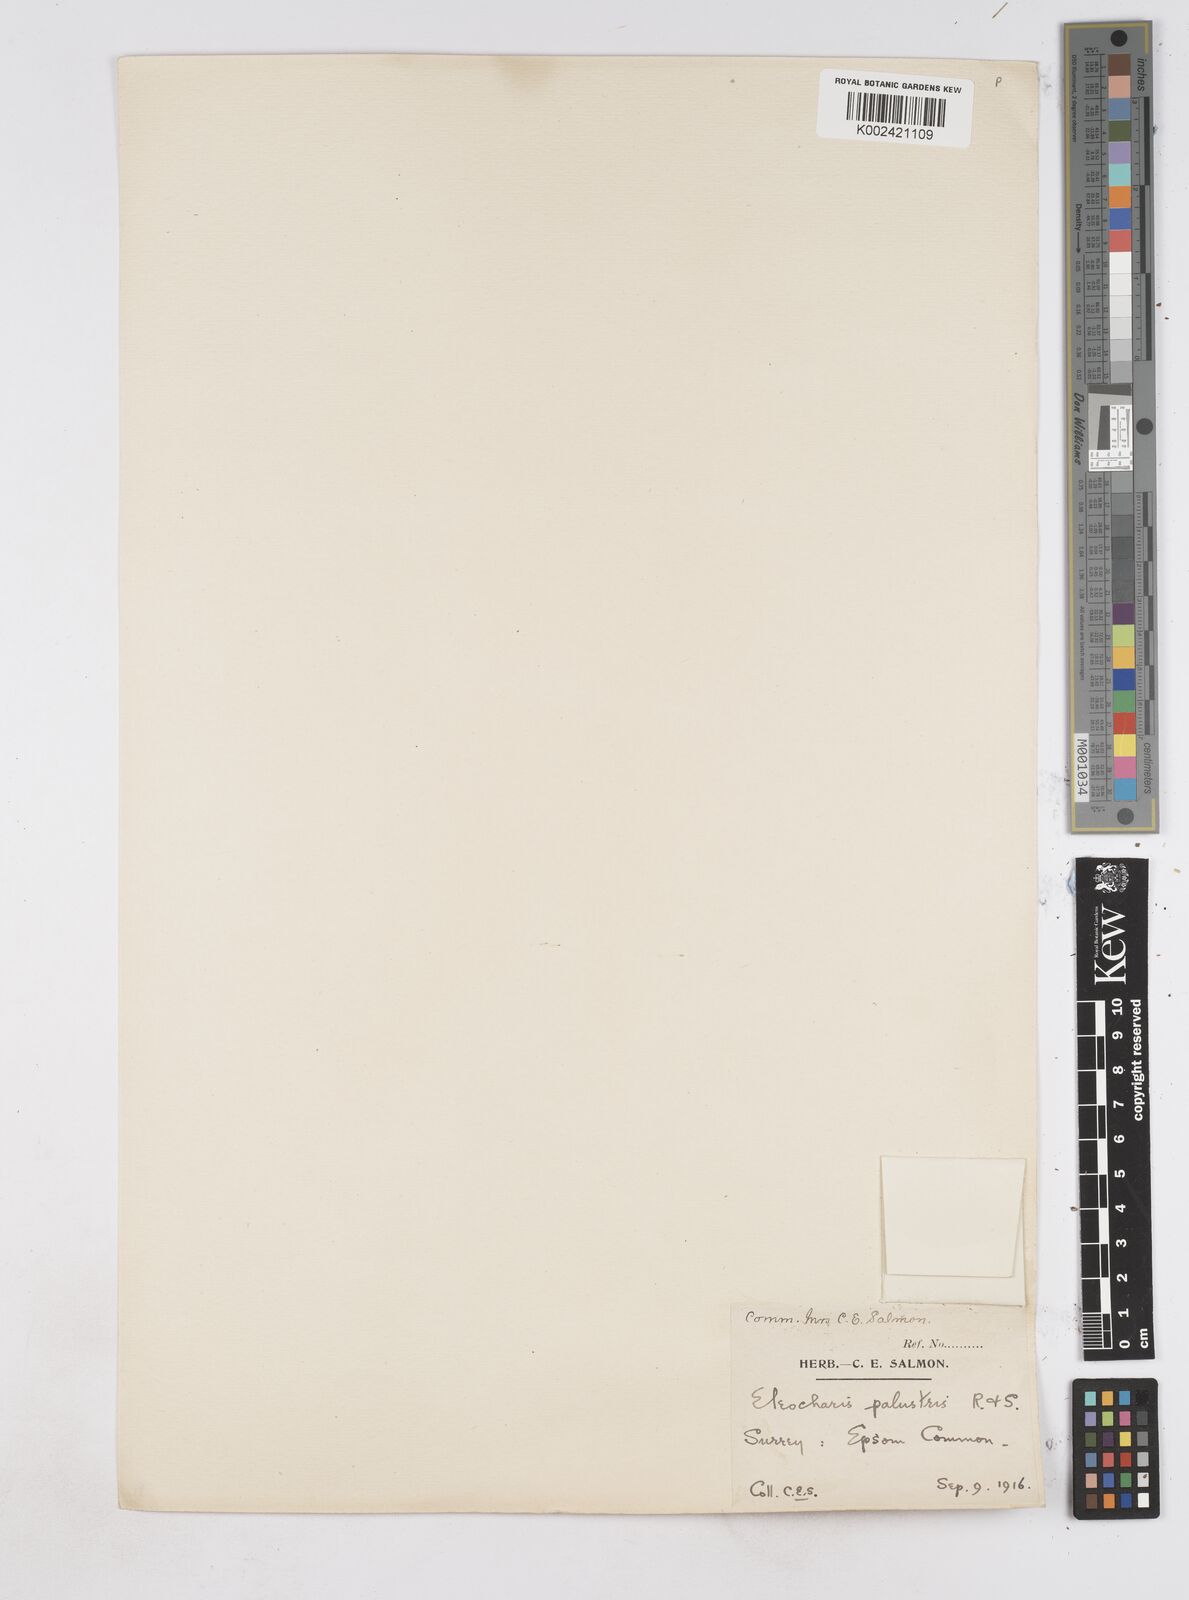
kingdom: Plantae
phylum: Tracheophyta
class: Liliopsida
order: Poales
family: Cyperaceae
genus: Eleocharis
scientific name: Eleocharis palustris
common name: Common spike-rush
